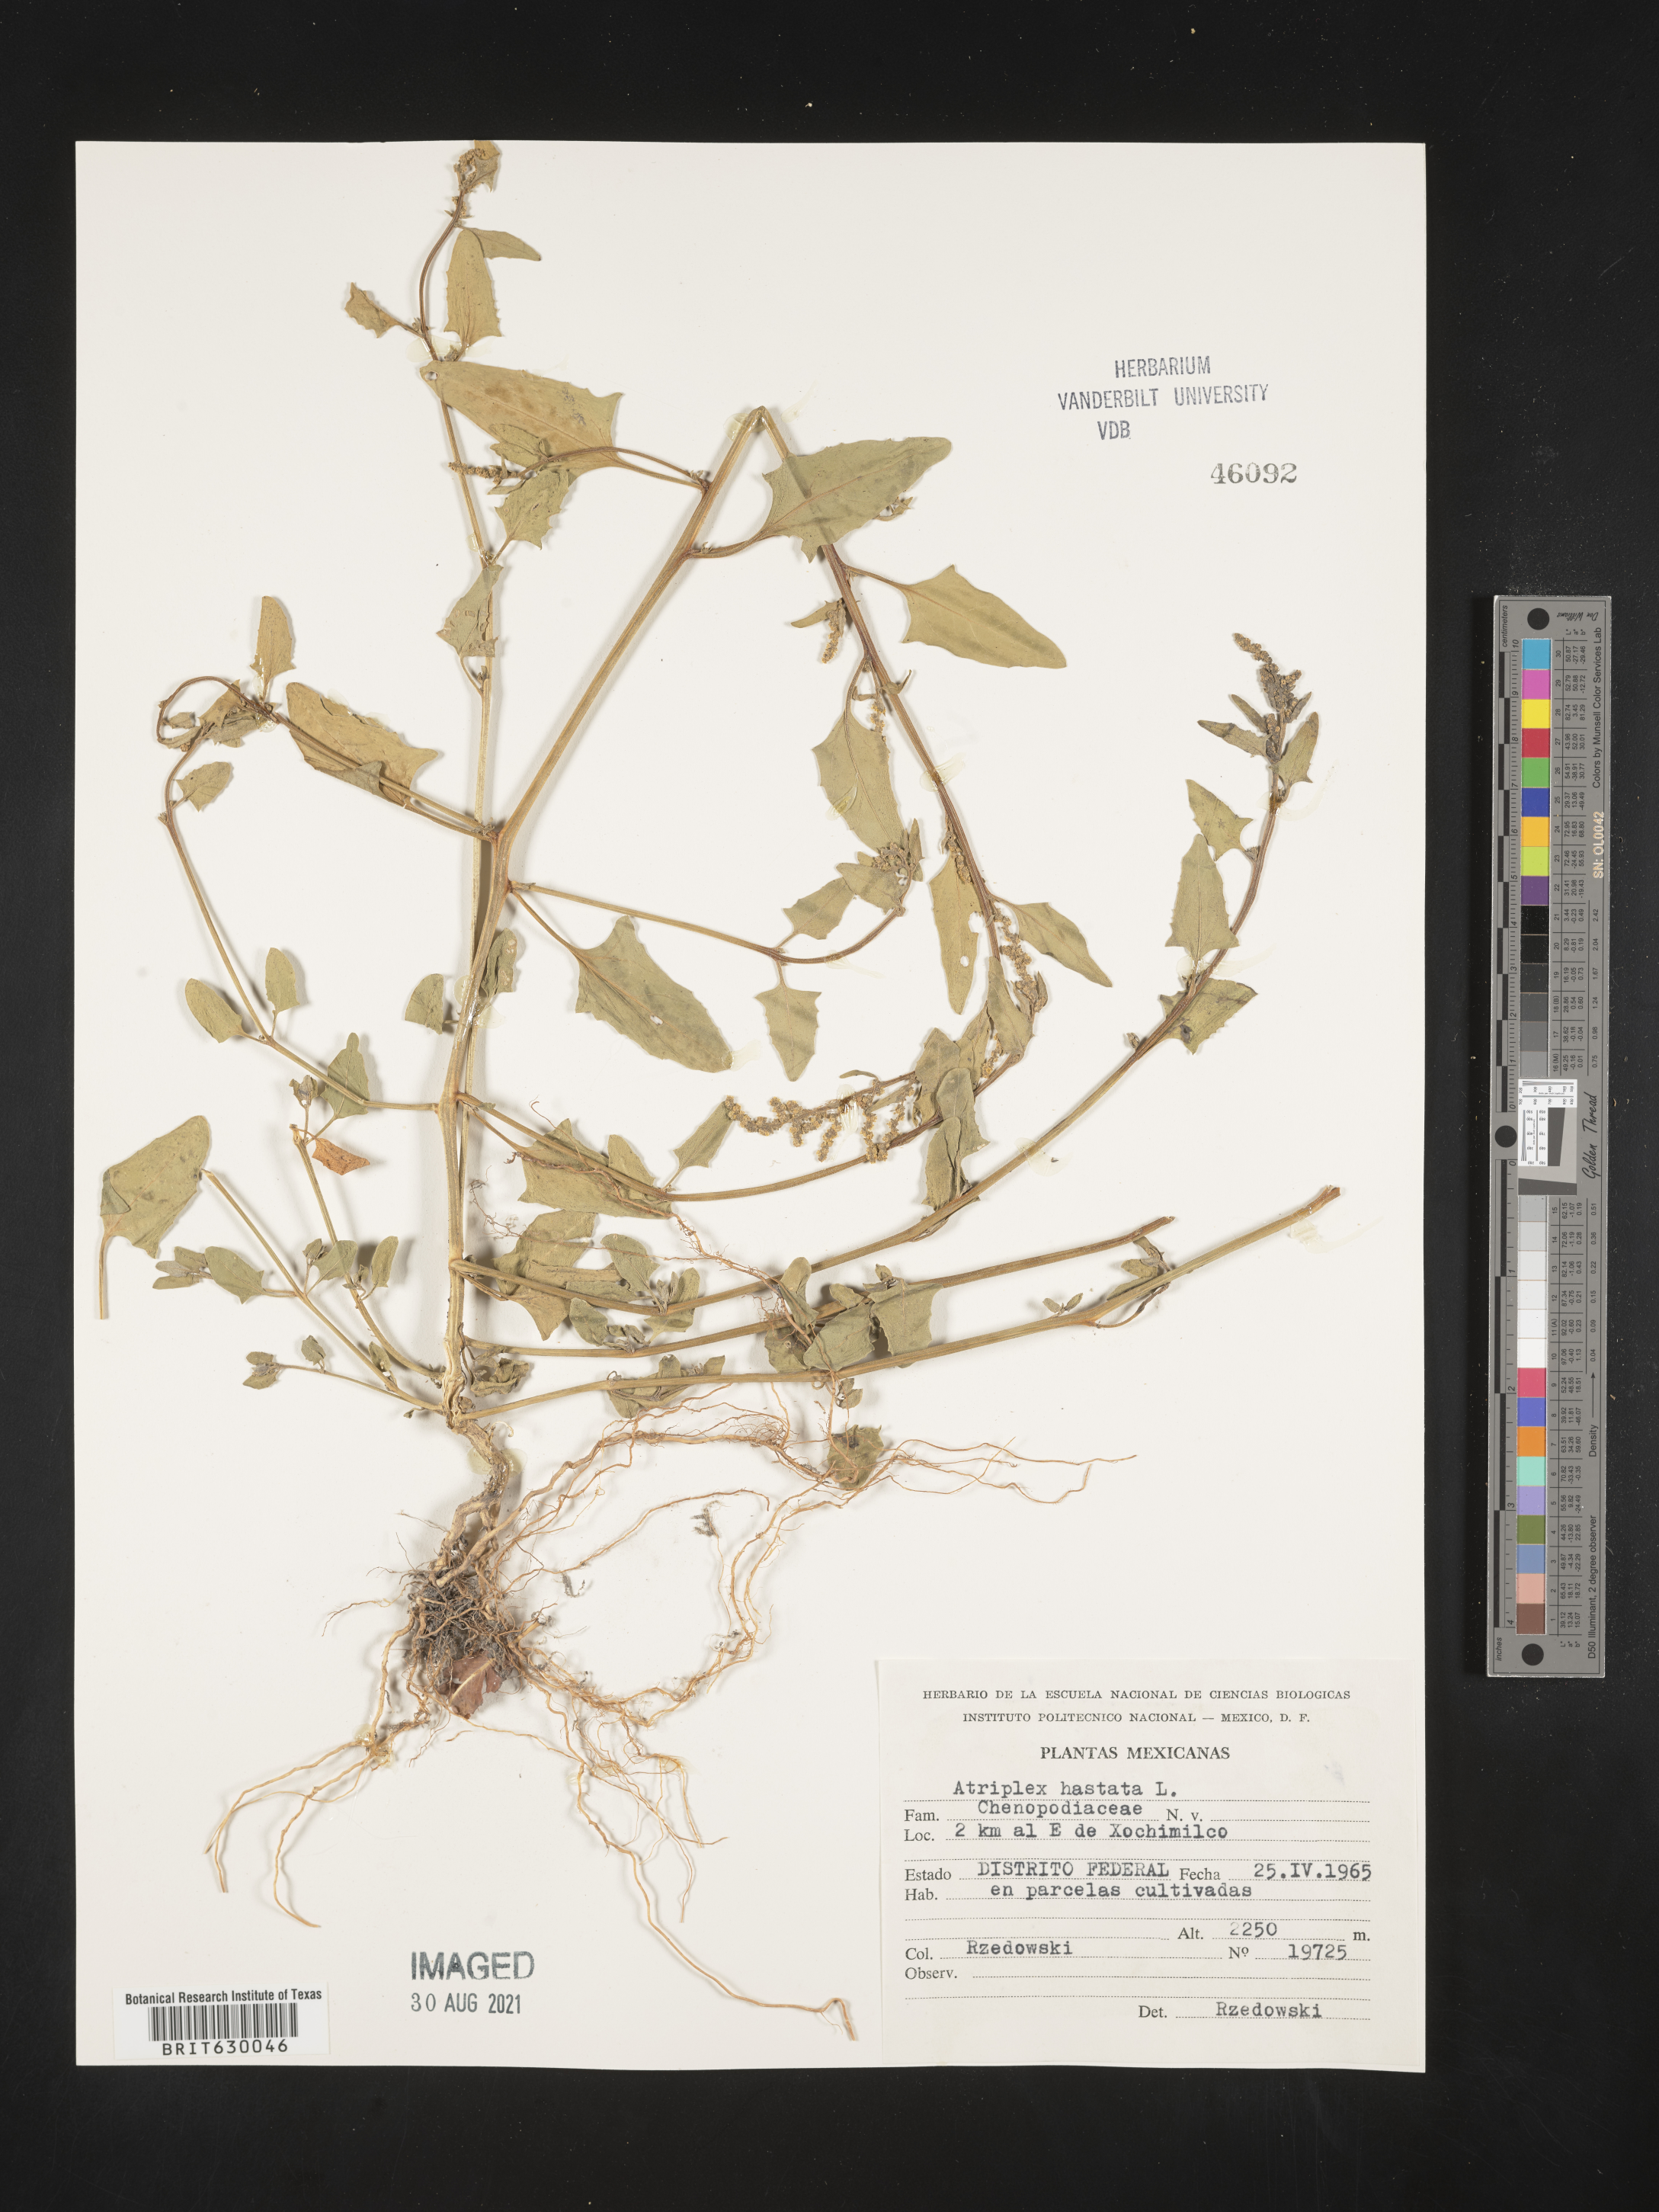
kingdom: Plantae
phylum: Tracheophyta
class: Magnoliopsida
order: Caryophyllales
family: Amaranthaceae
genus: Atriplex
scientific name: Atriplex
